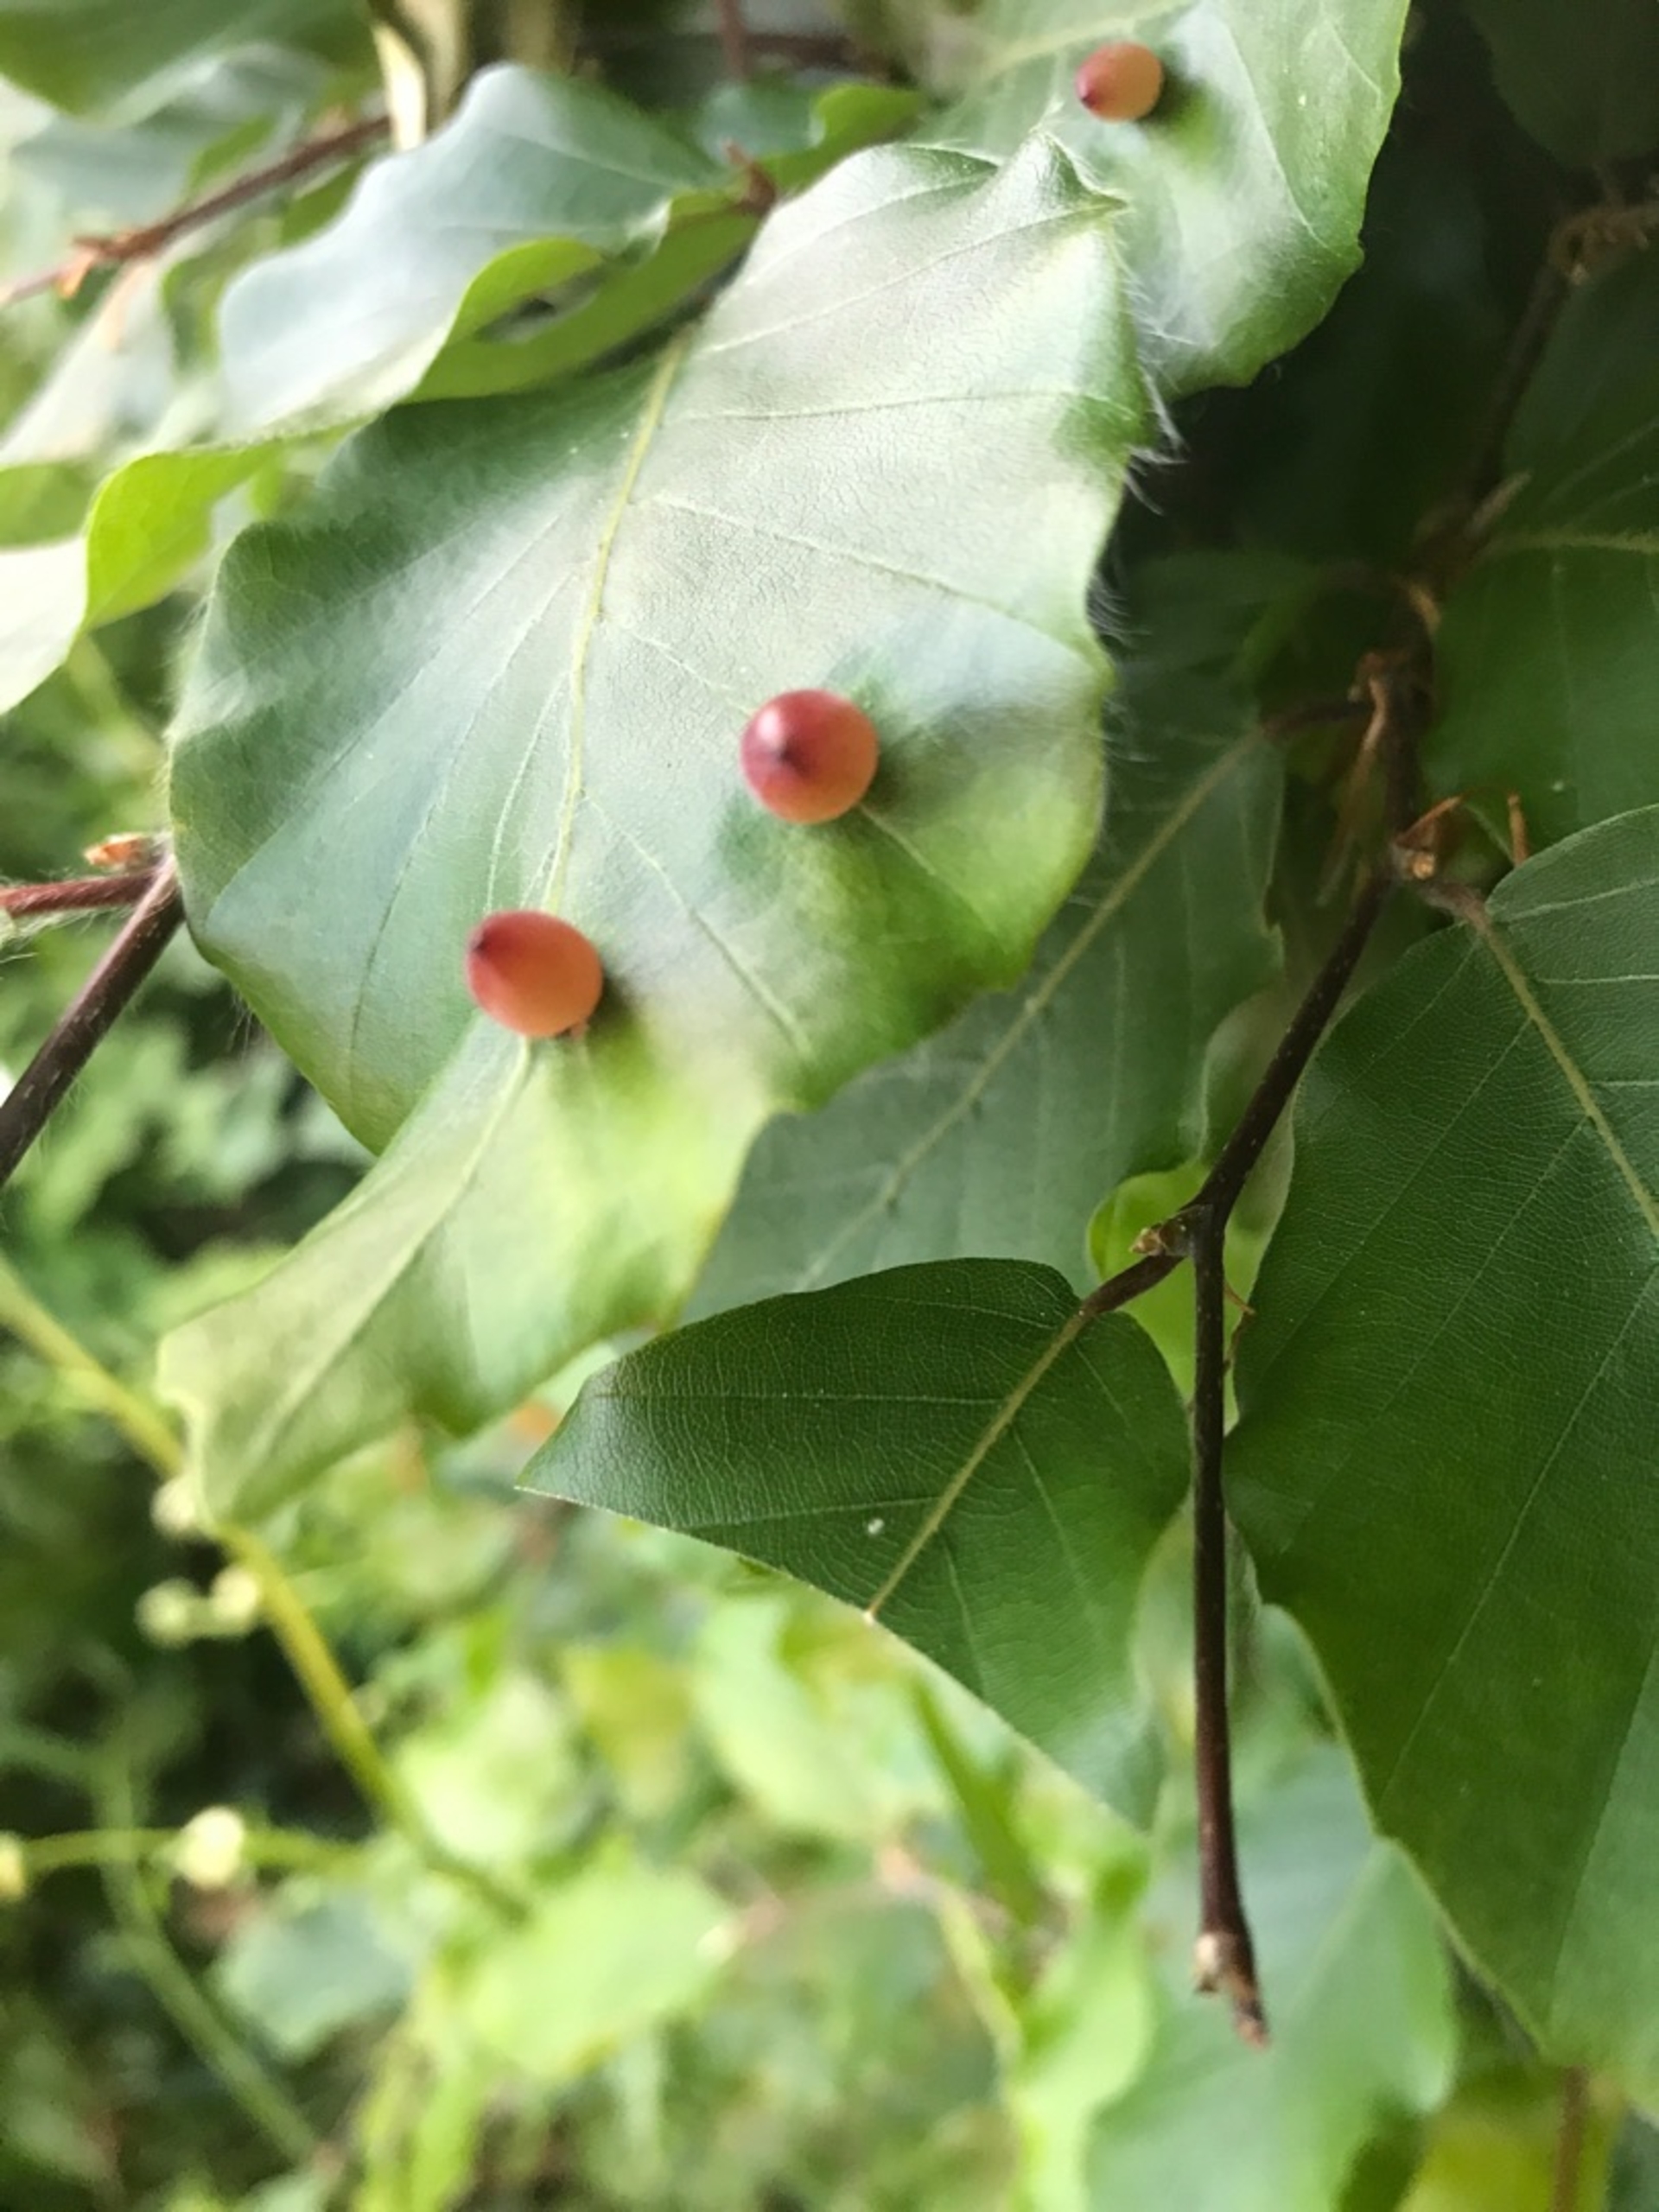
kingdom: Animalia
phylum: Arthropoda
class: Insecta
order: Diptera
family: Cecidomyiidae
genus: Mikiola
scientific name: Mikiola fagi
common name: Bøgegalmyg
